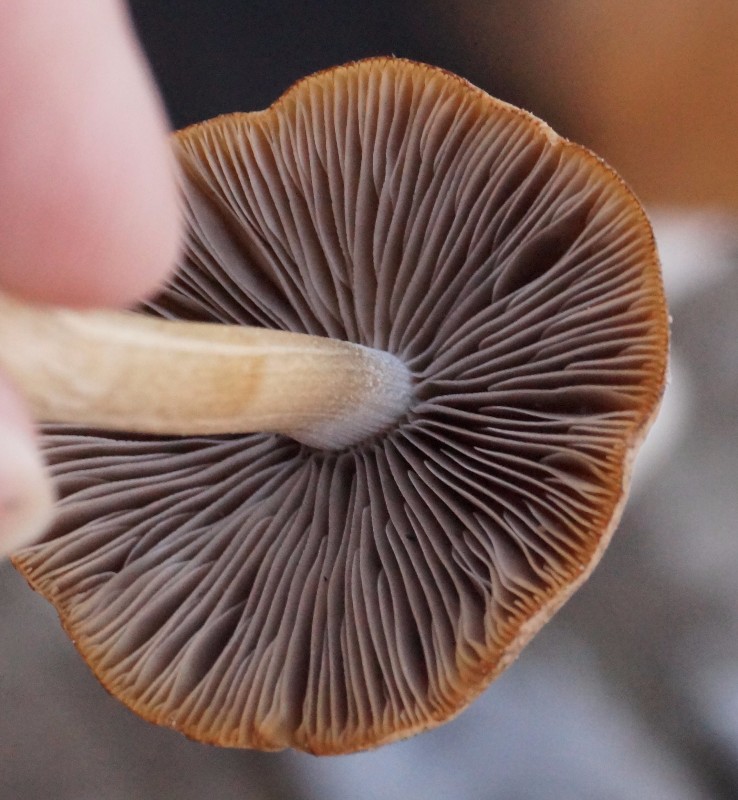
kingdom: Fungi
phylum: Basidiomycota
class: Agaricomycetes
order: Agaricales
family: Psathyrellaceae
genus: Psathyrella
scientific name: Psathyrella spadiceogrisea
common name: gråbrun mørkhat
